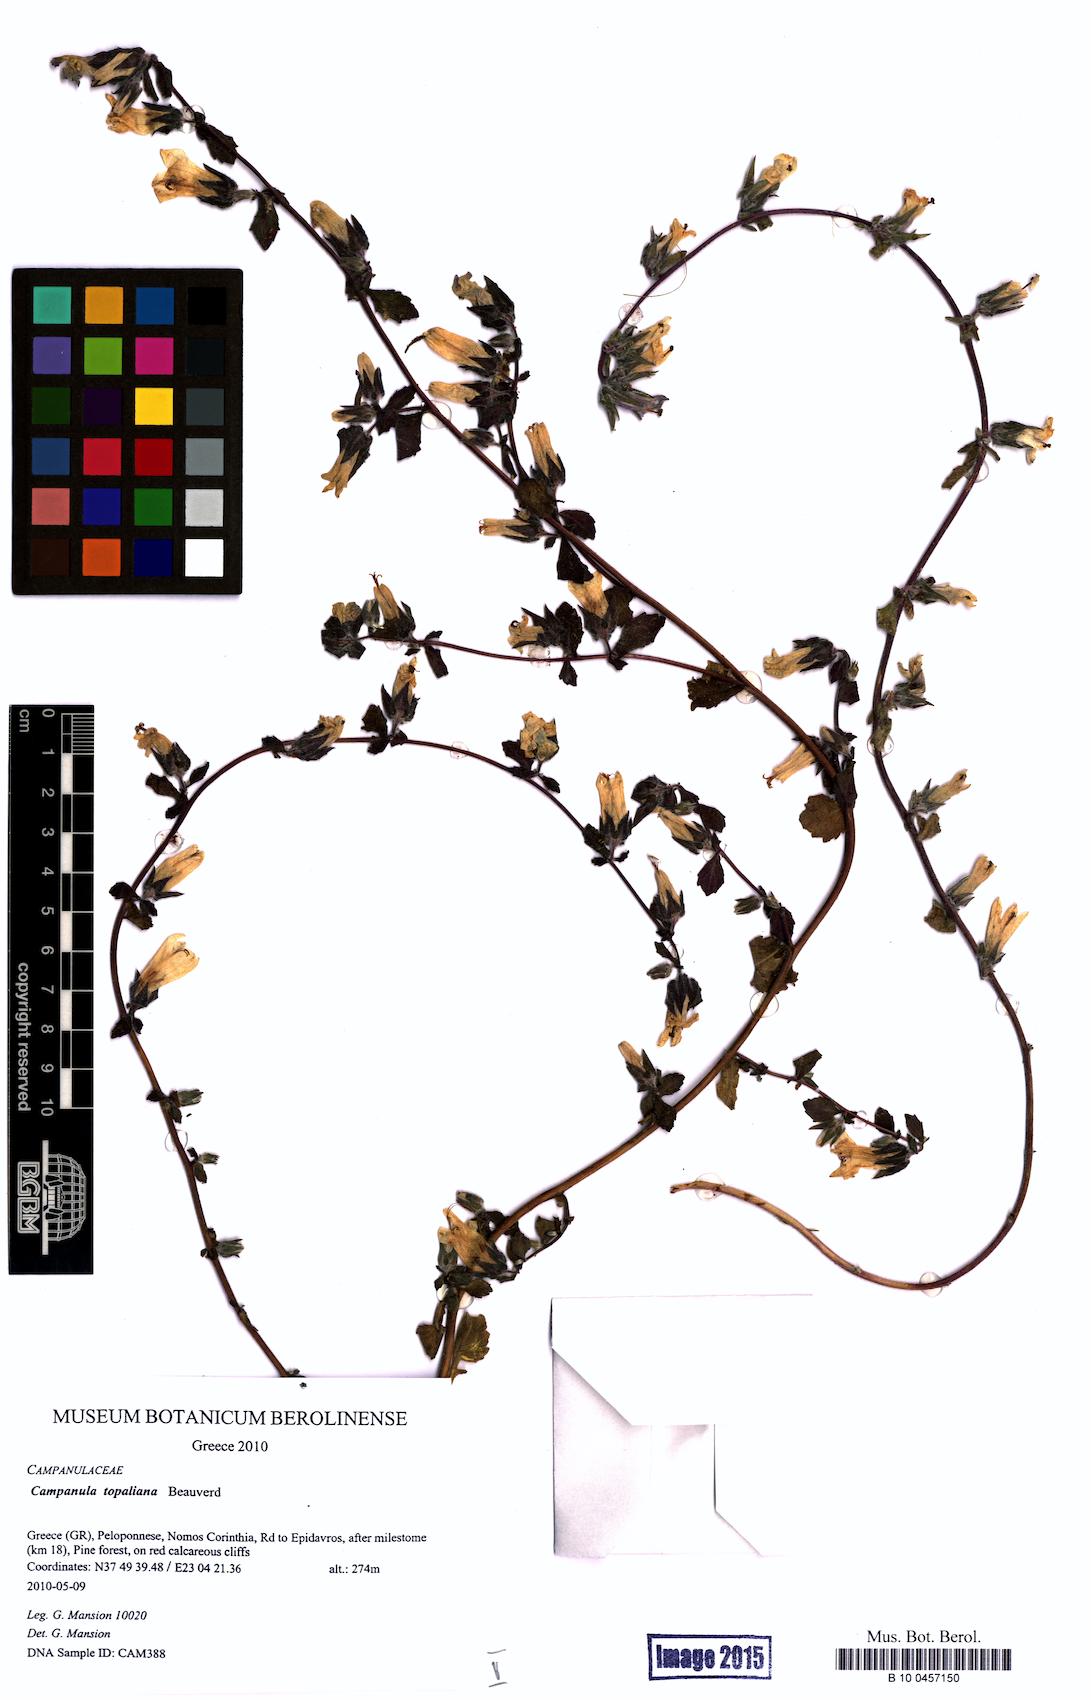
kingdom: Plantae
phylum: Tracheophyta
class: Magnoliopsida
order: Asterales
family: Campanulaceae
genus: Campanula
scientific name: Campanula topaliana
